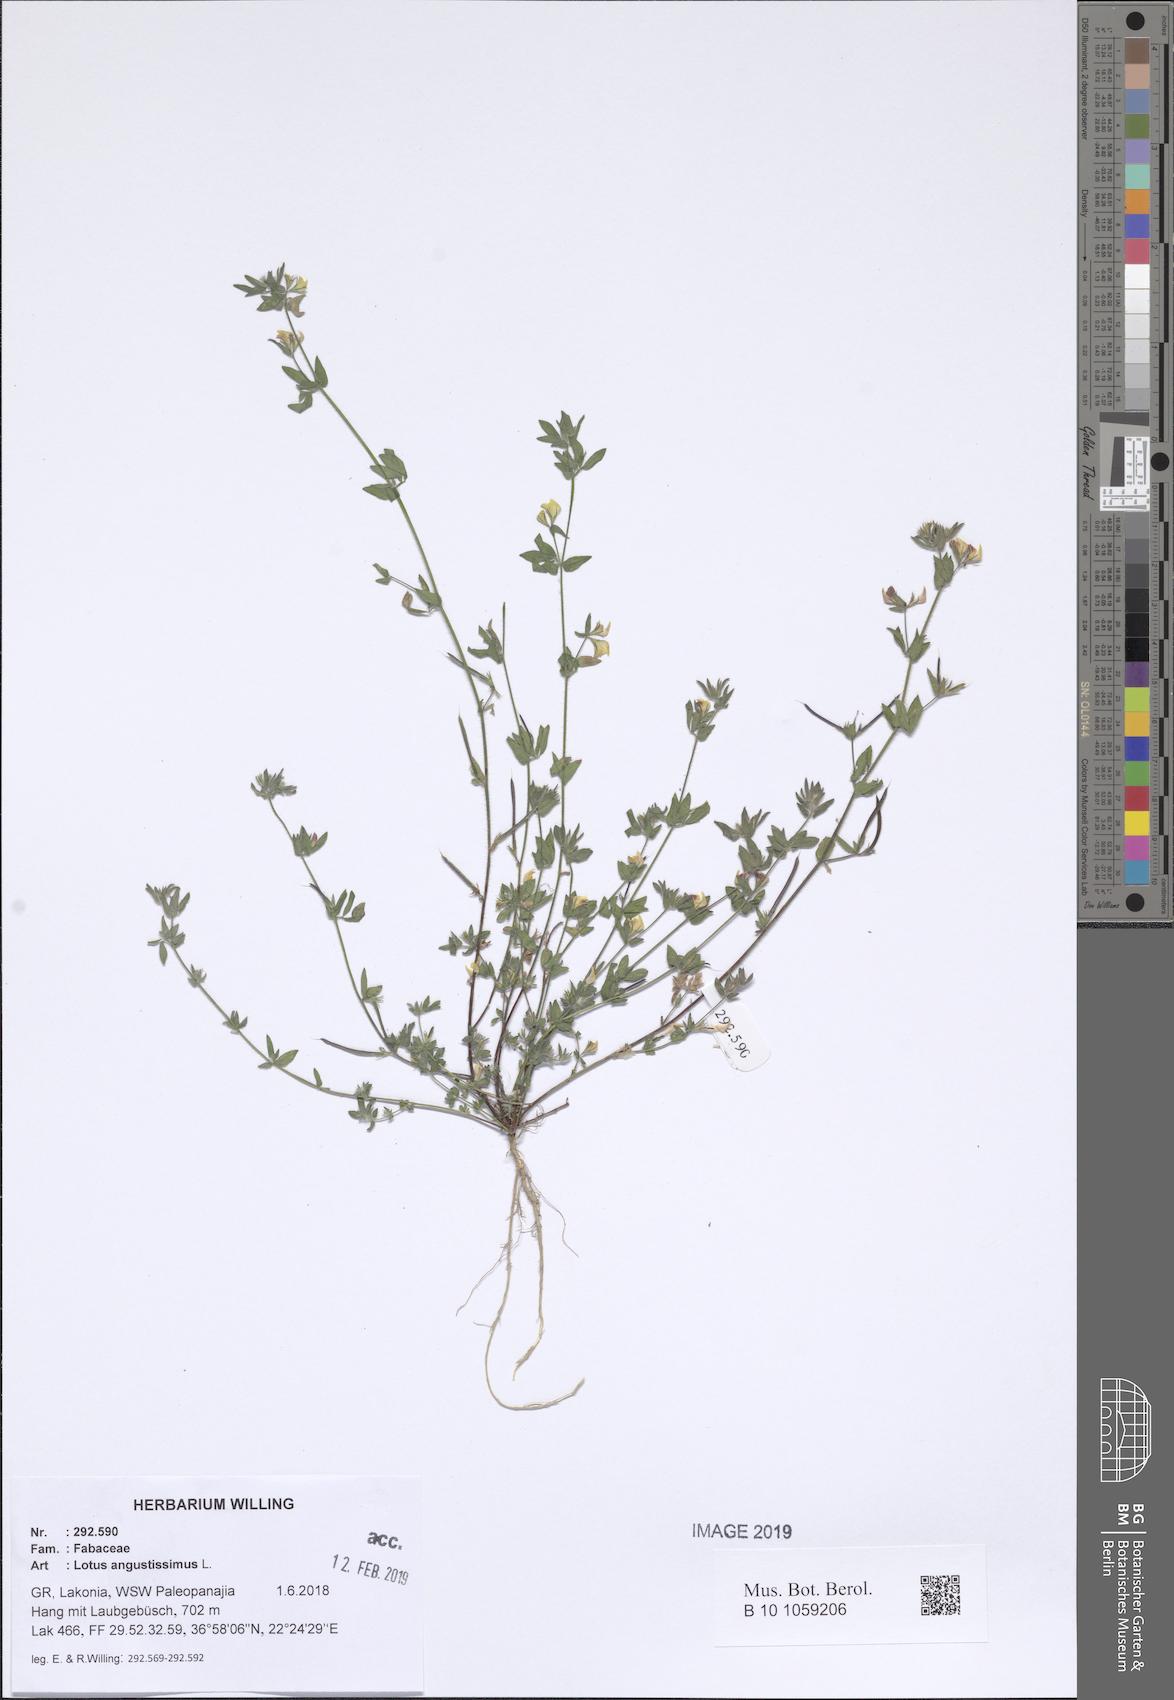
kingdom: Plantae
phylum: Tracheophyta
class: Magnoliopsida
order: Fabales
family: Fabaceae
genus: Lotus
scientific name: Lotus angustissimus
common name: Slender bird's-foot trefoil
